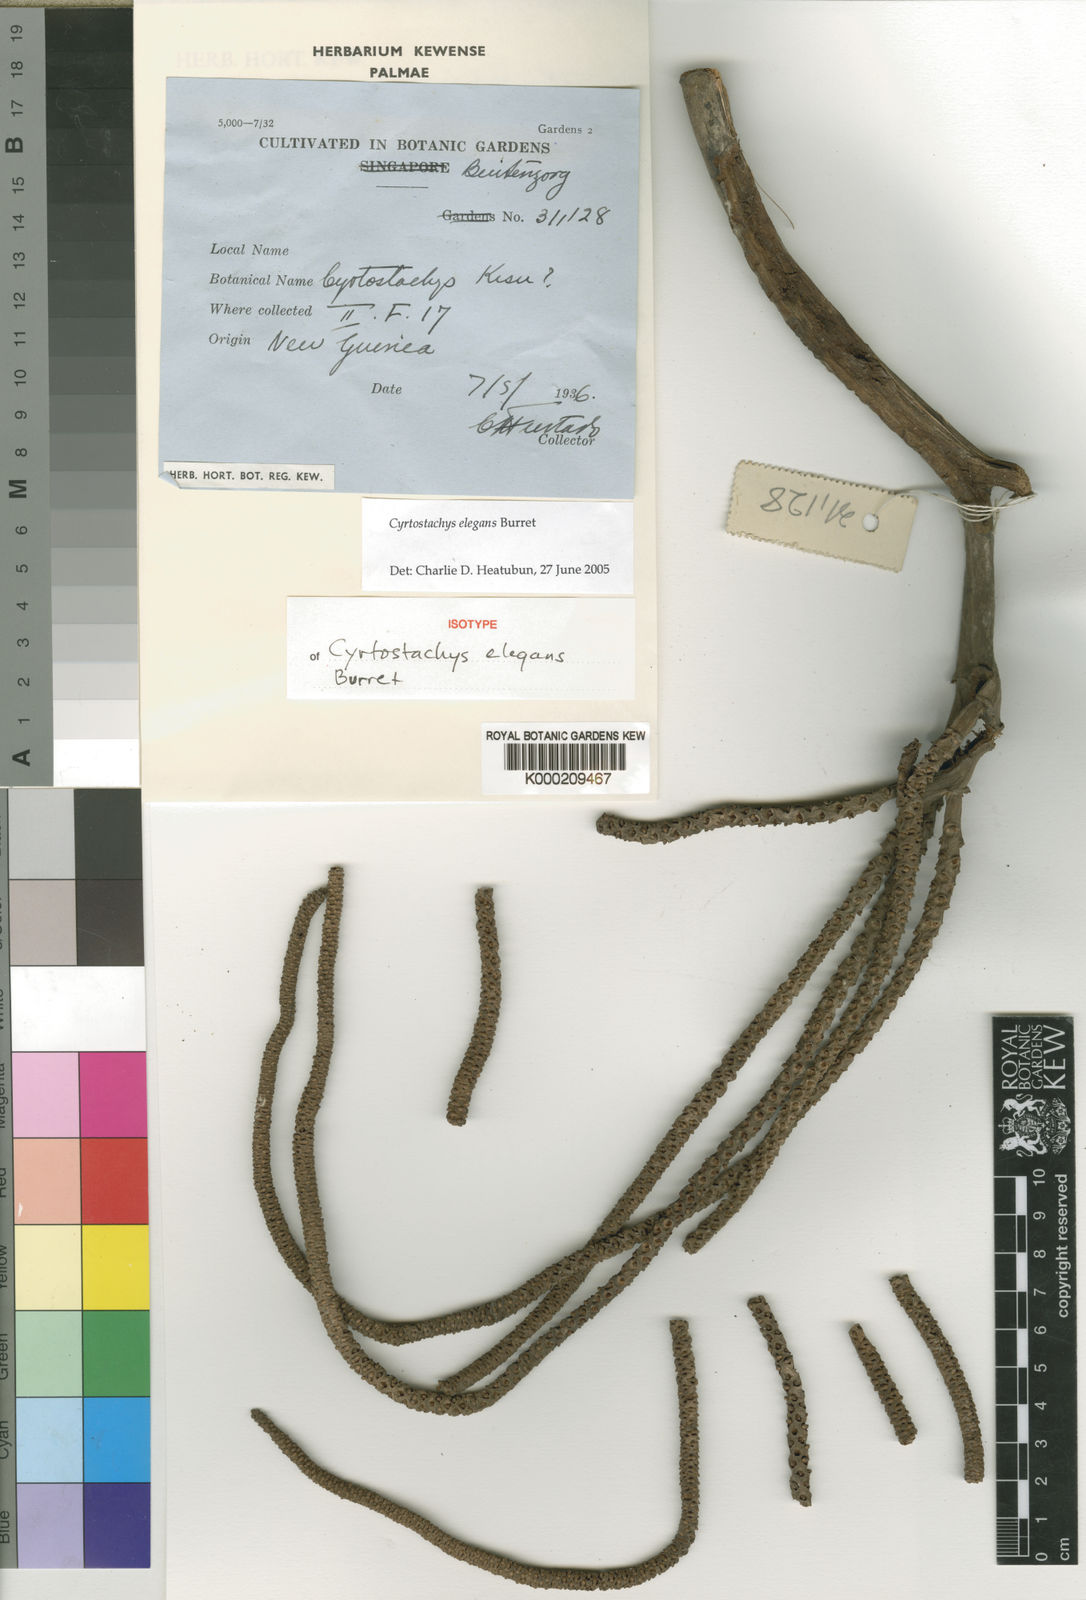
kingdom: Plantae
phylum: Tracheophyta
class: Liliopsida
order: Arecales
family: Arecaceae
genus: Cyrtostachys
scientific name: Cyrtostachys elegans
